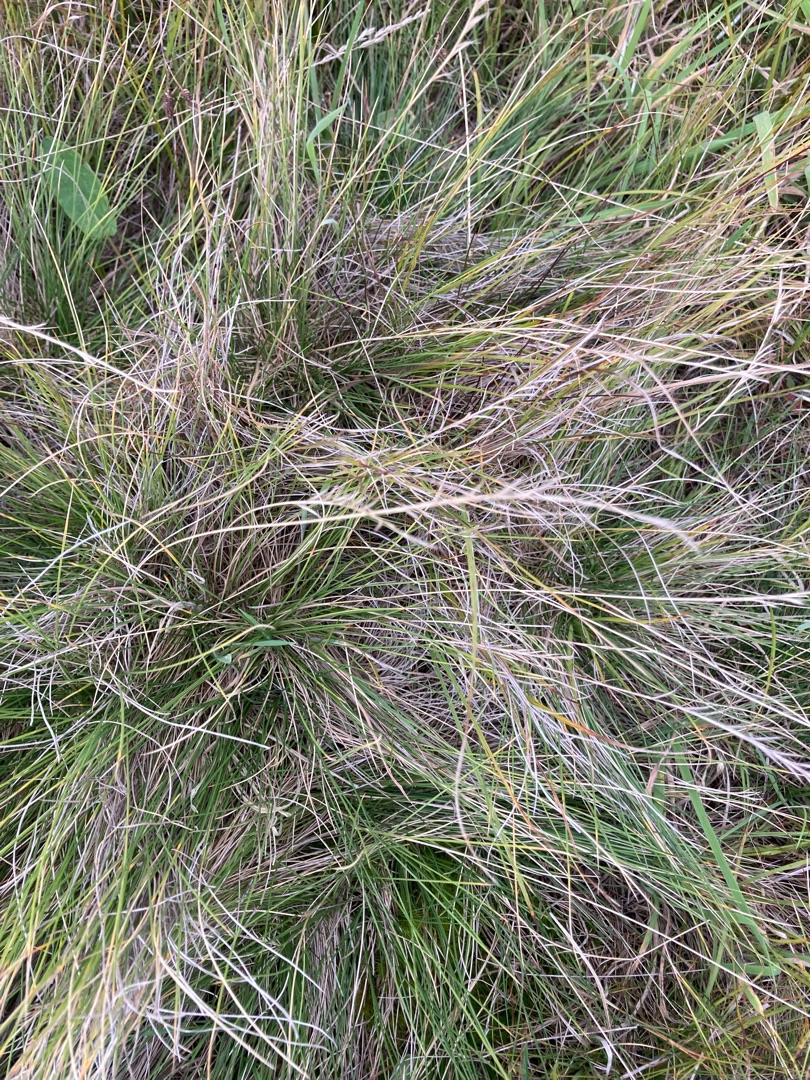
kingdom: Plantae
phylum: Tracheophyta
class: Liliopsida
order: Poales
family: Poaceae
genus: Nardus
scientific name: Nardus stricta
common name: Katteskæg
